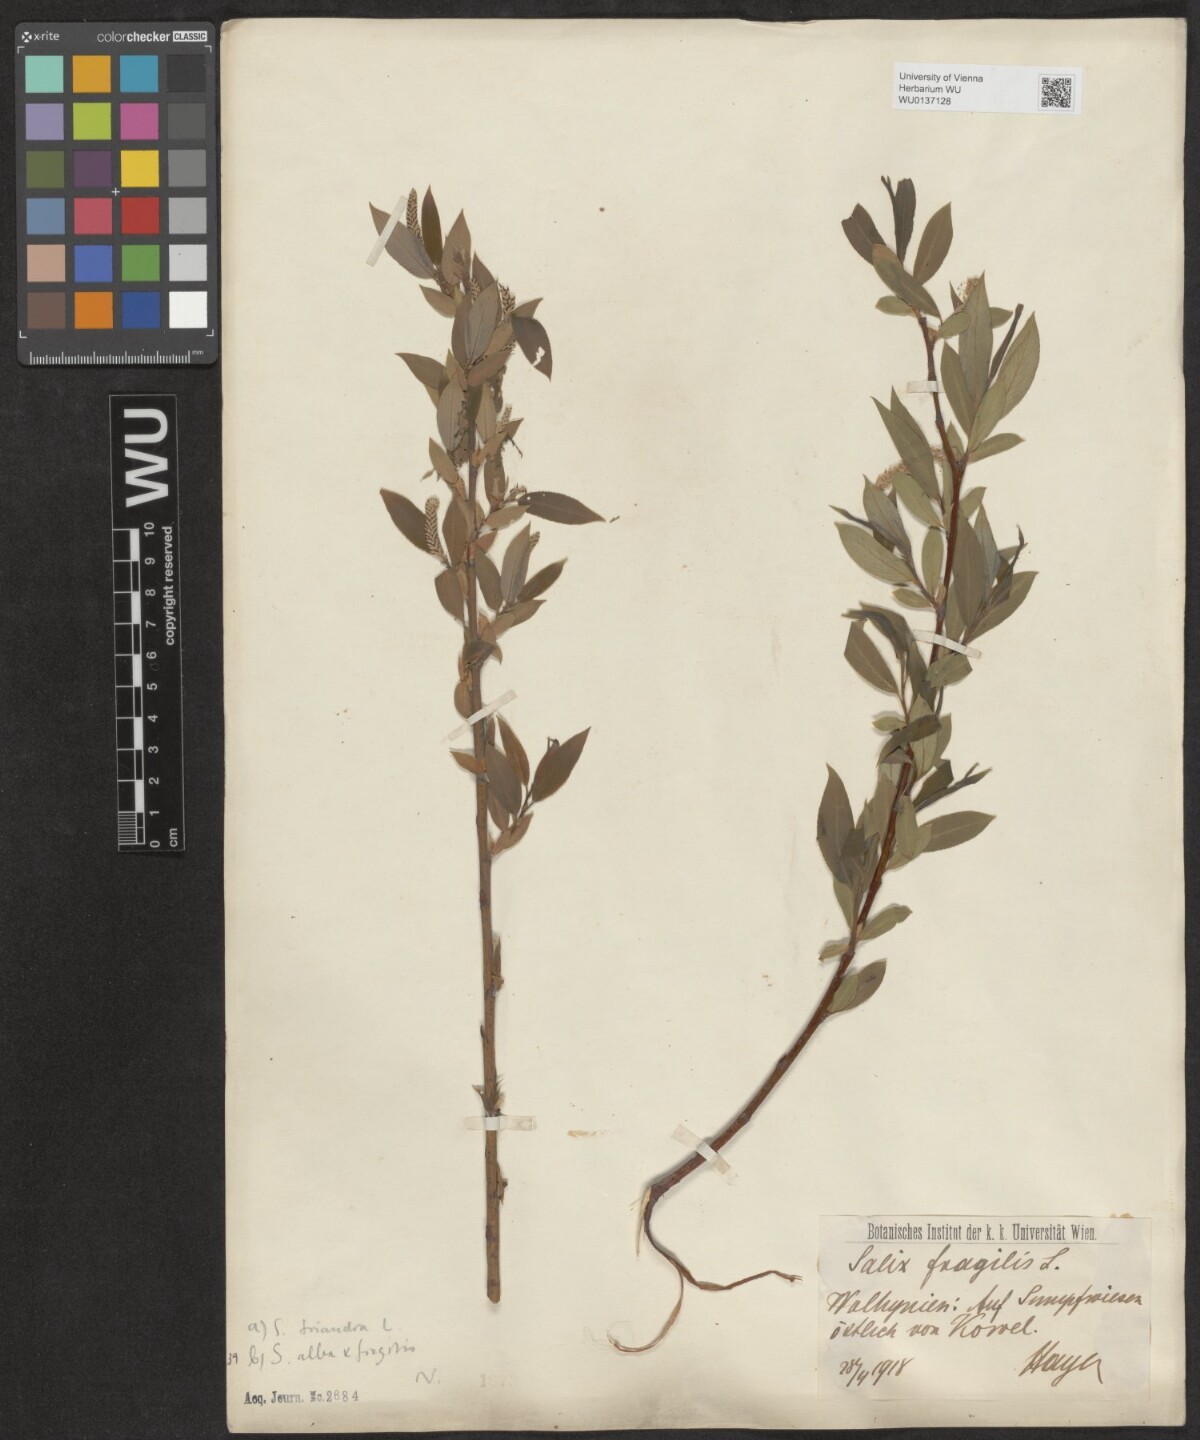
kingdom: Plantae
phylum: Tracheophyta
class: Magnoliopsida
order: Malpighiales
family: Salicaceae
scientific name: Salicaceae
